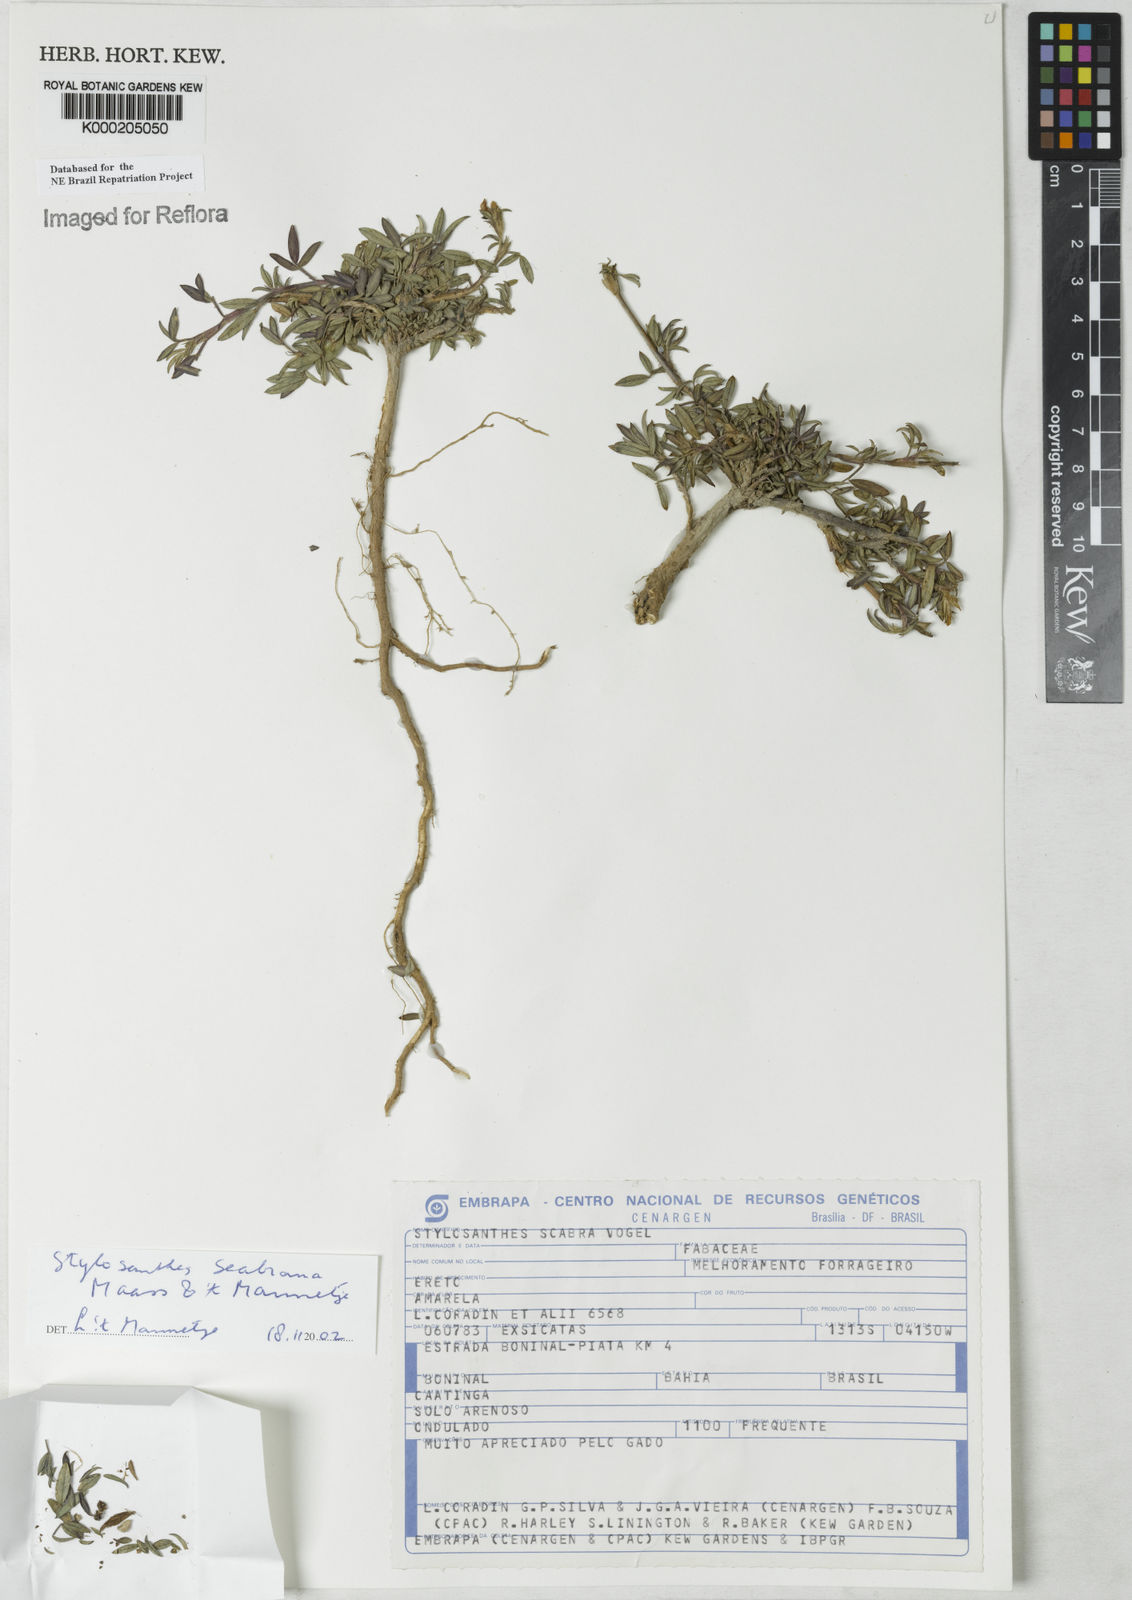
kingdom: Plantae
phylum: Tracheophyta
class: Magnoliopsida
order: Fabales
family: Fabaceae
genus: Stylosanthes
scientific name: Stylosanthes scabra
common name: Pencilflower
